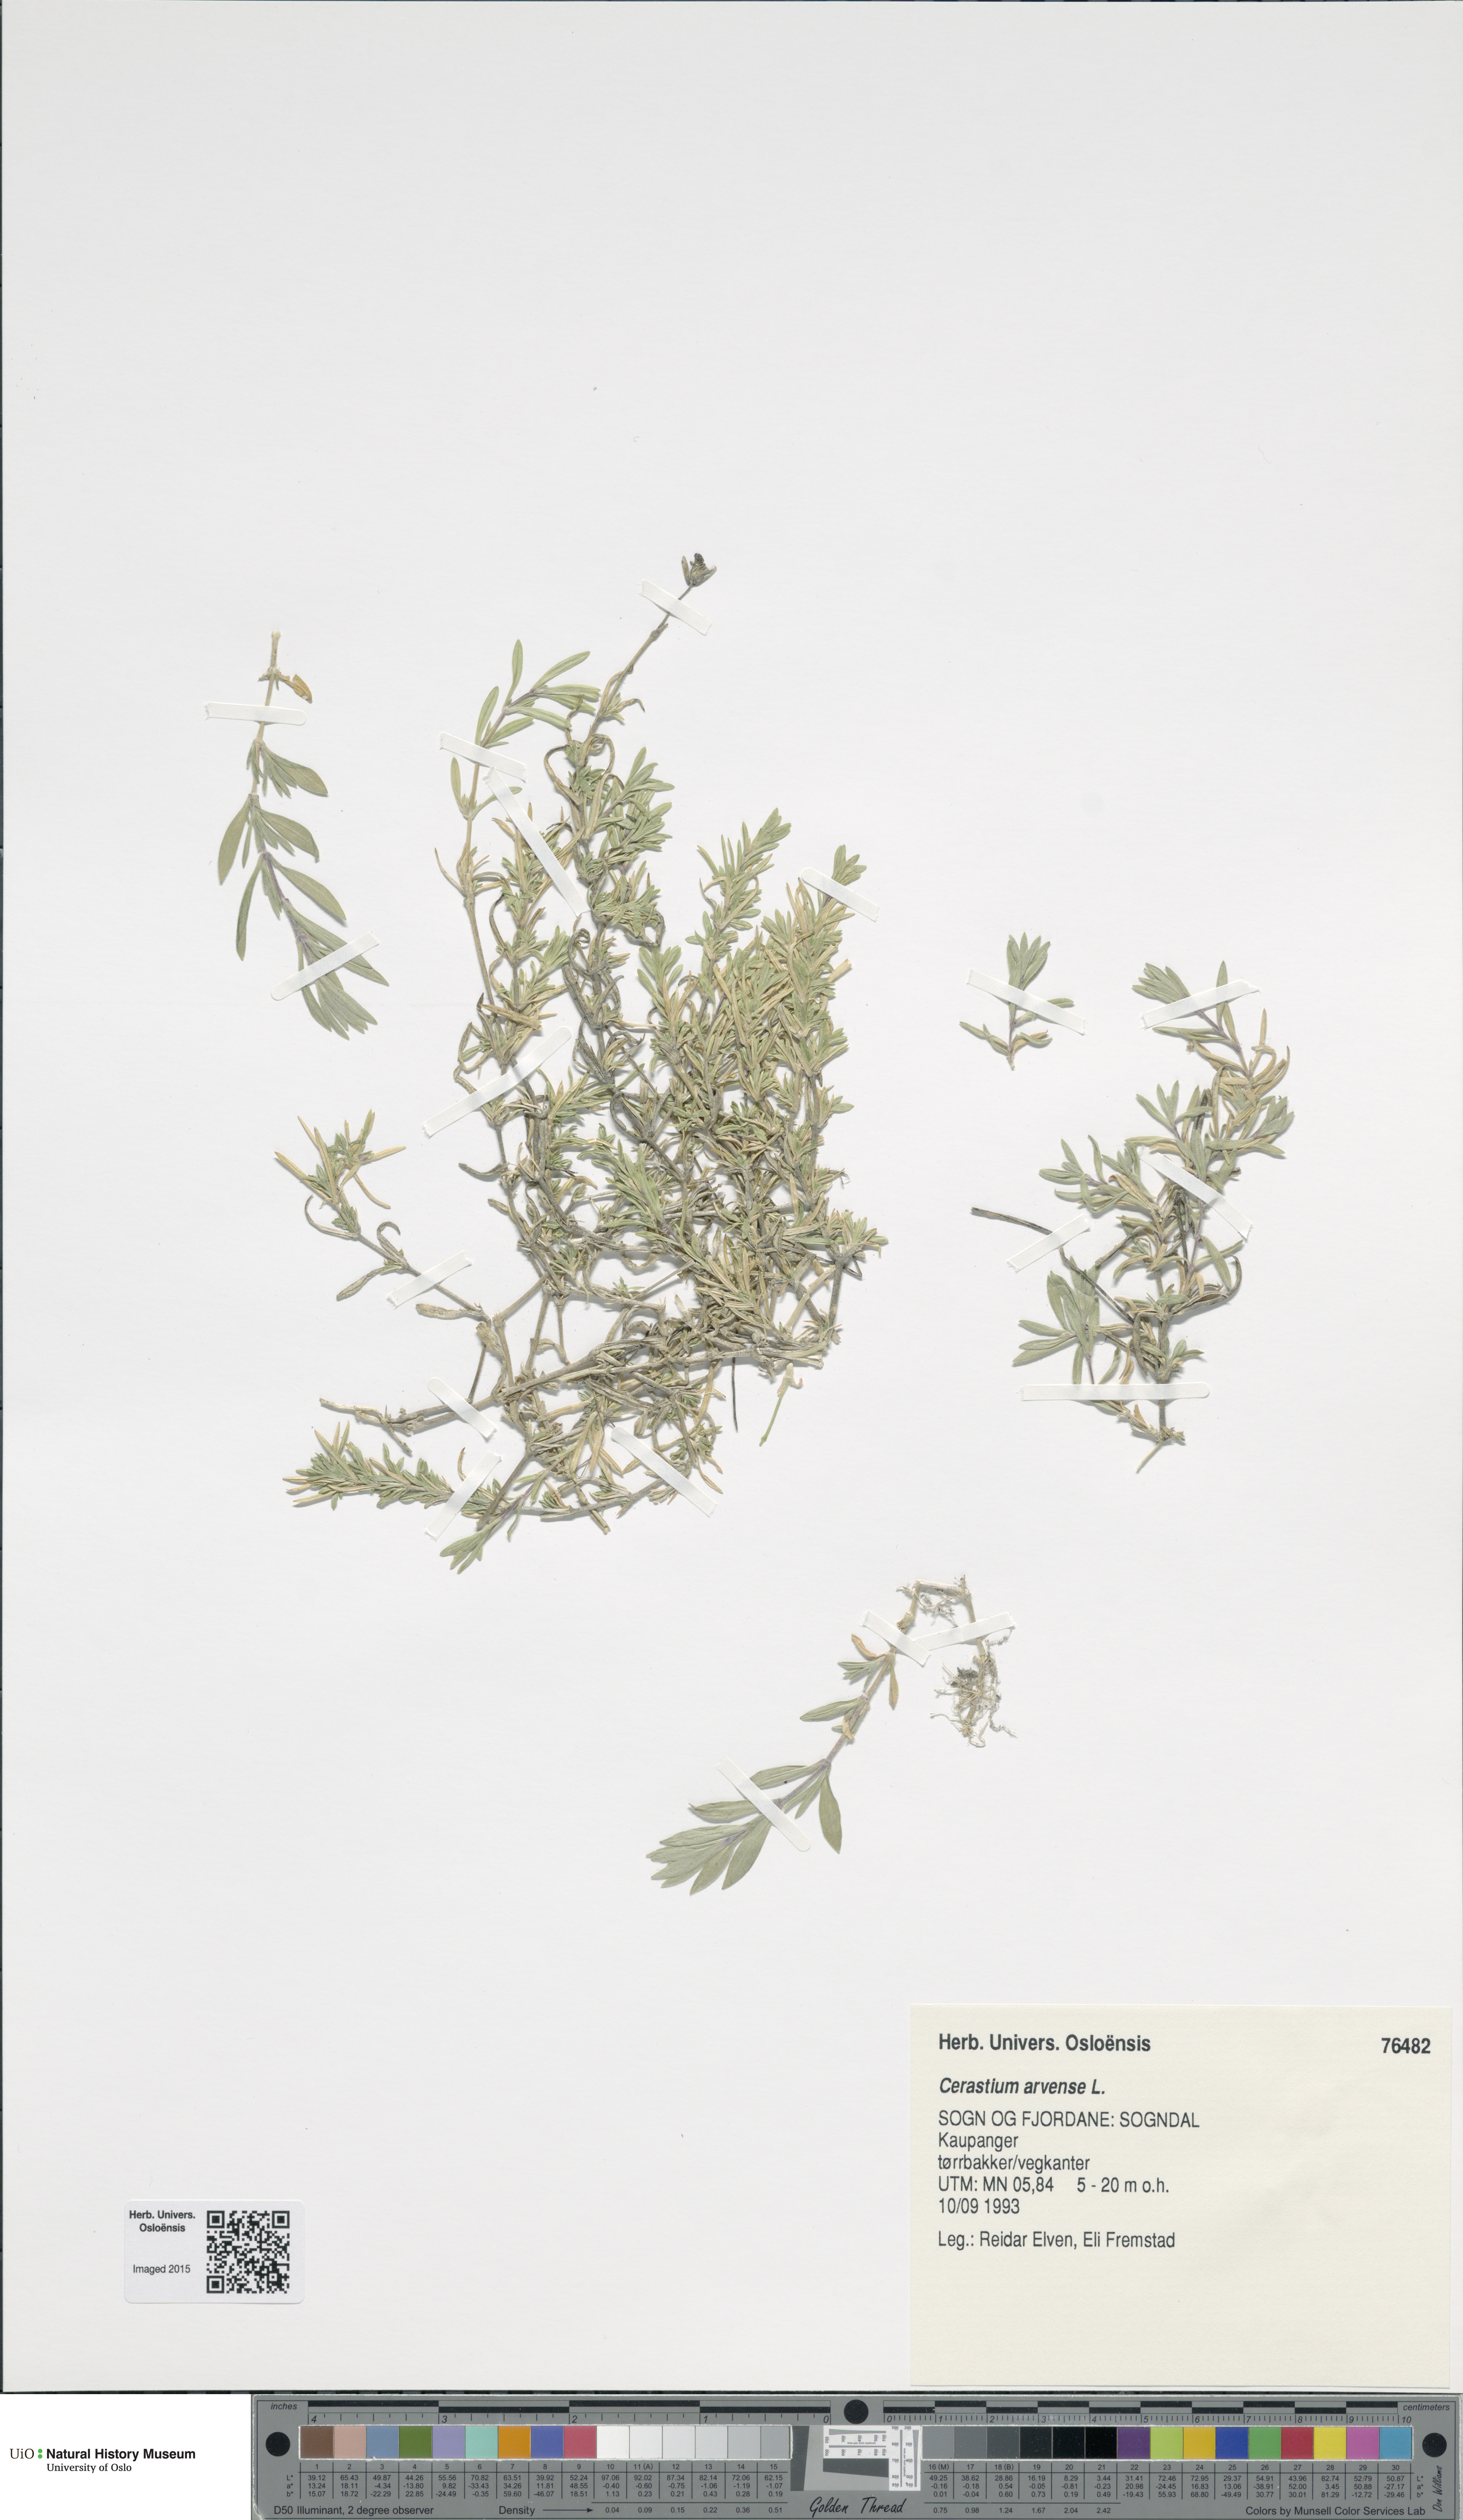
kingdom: Plantae
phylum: Tracheophyta
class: Magnoliopsida
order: Caryophyllales
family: Caryophyllaceae
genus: Cerastium
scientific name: Cerastium arvense
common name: Field mouse-ear
